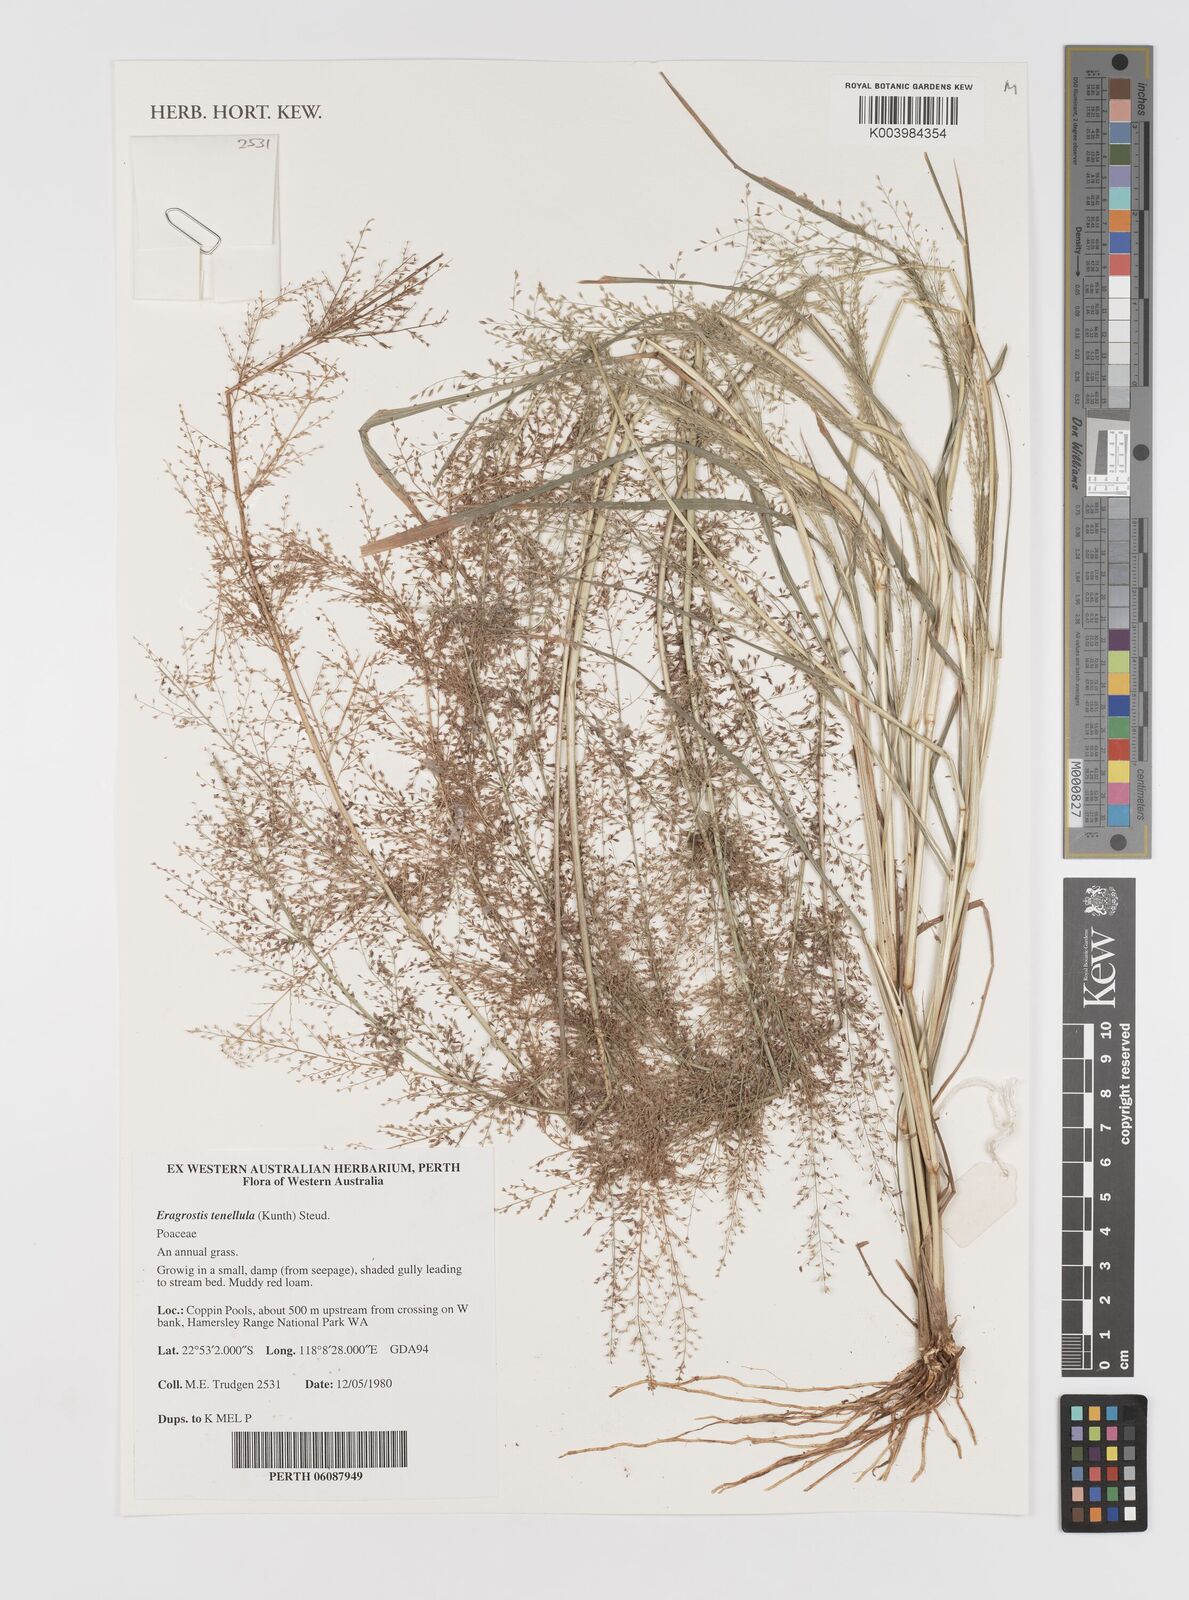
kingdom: Plantae
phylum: Tracheophyta
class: Liliopsida
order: Poales
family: Poaceae
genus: Eragrostis
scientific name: Eragrostis tenellula
